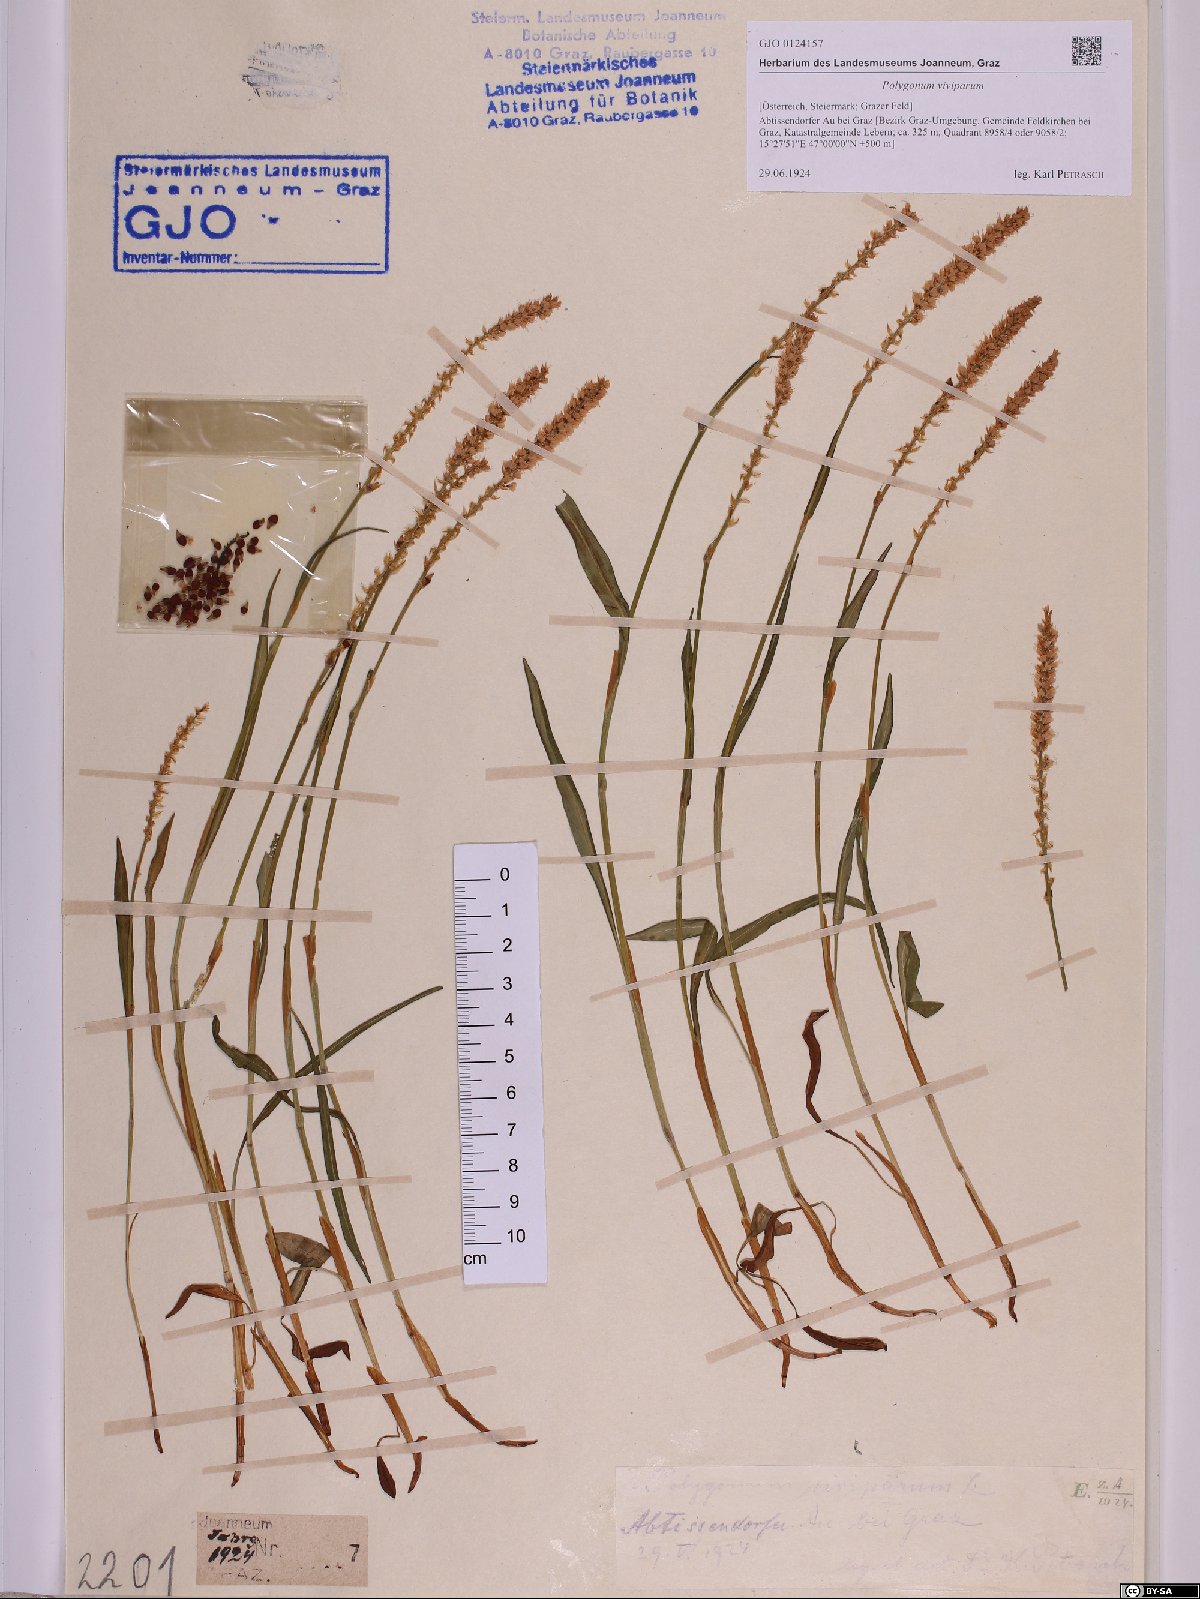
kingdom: Plantae
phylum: Tracheophyta
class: Magnoliopsida
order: Caryophyllales
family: Polygonaceae
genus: Bistorta
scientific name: Bistorta vivipara
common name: Alpine bistort
